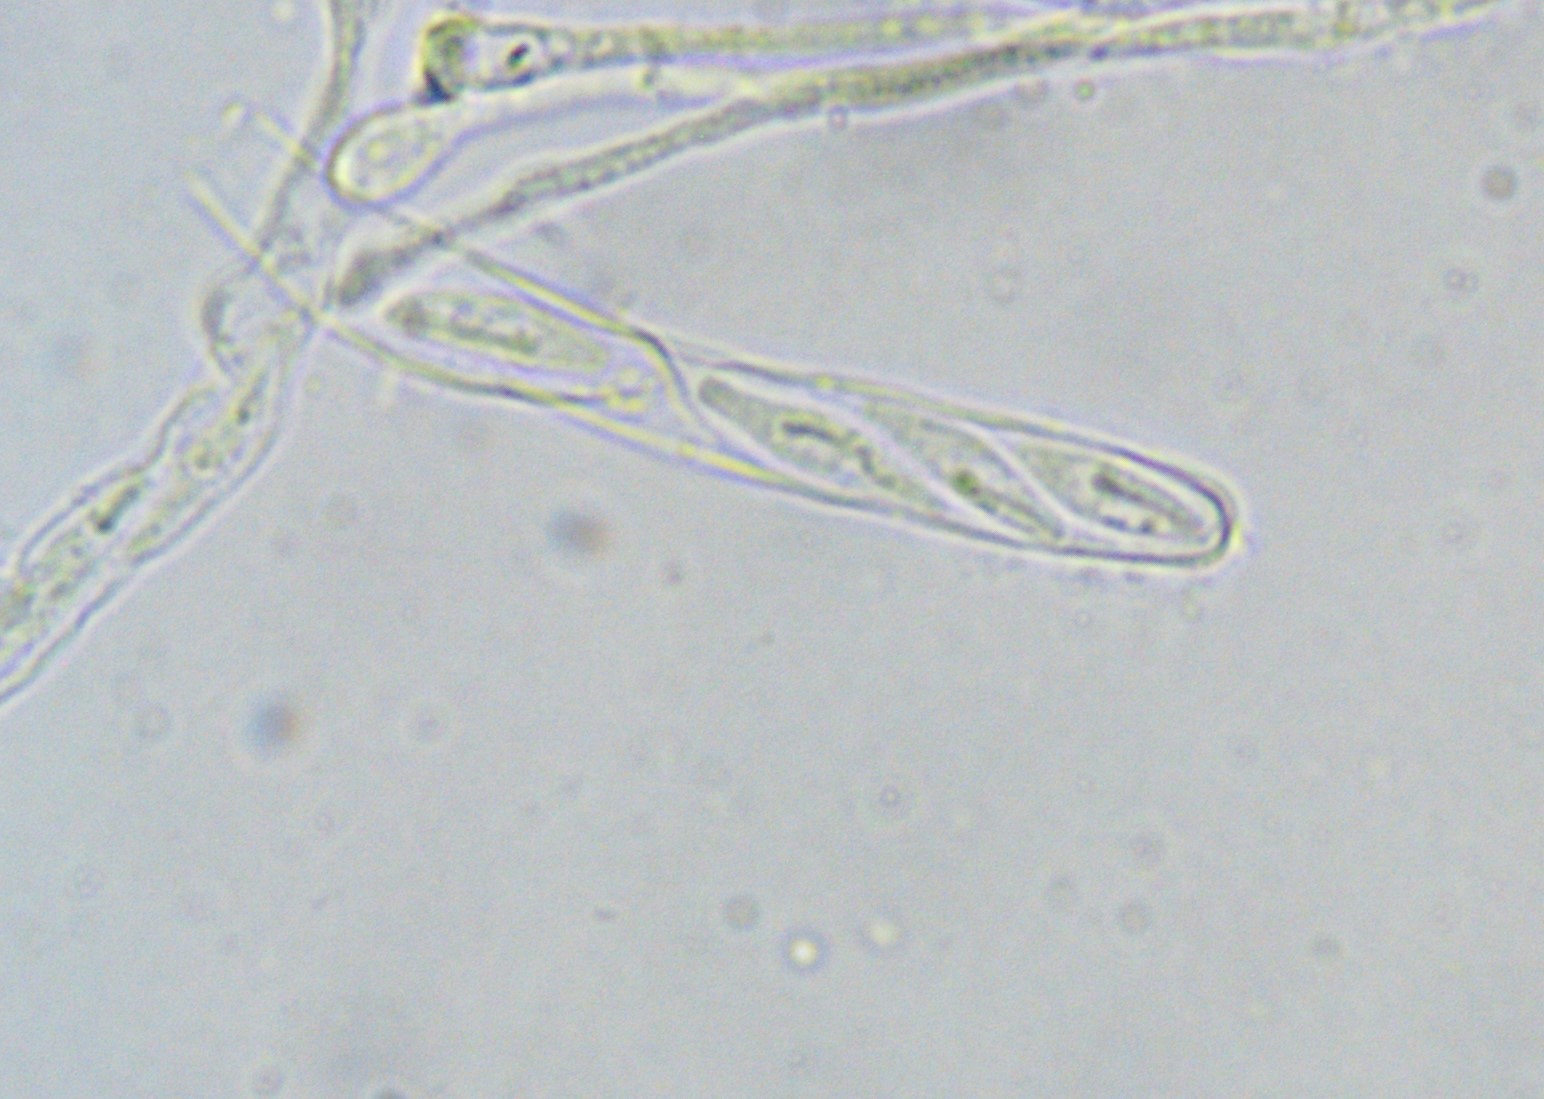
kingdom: Fungi
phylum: Ascomycota
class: Orbiliomycetes
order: Orbiliales
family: Orbiliaceae
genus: Orbilia
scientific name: Orbilia obtusispora
